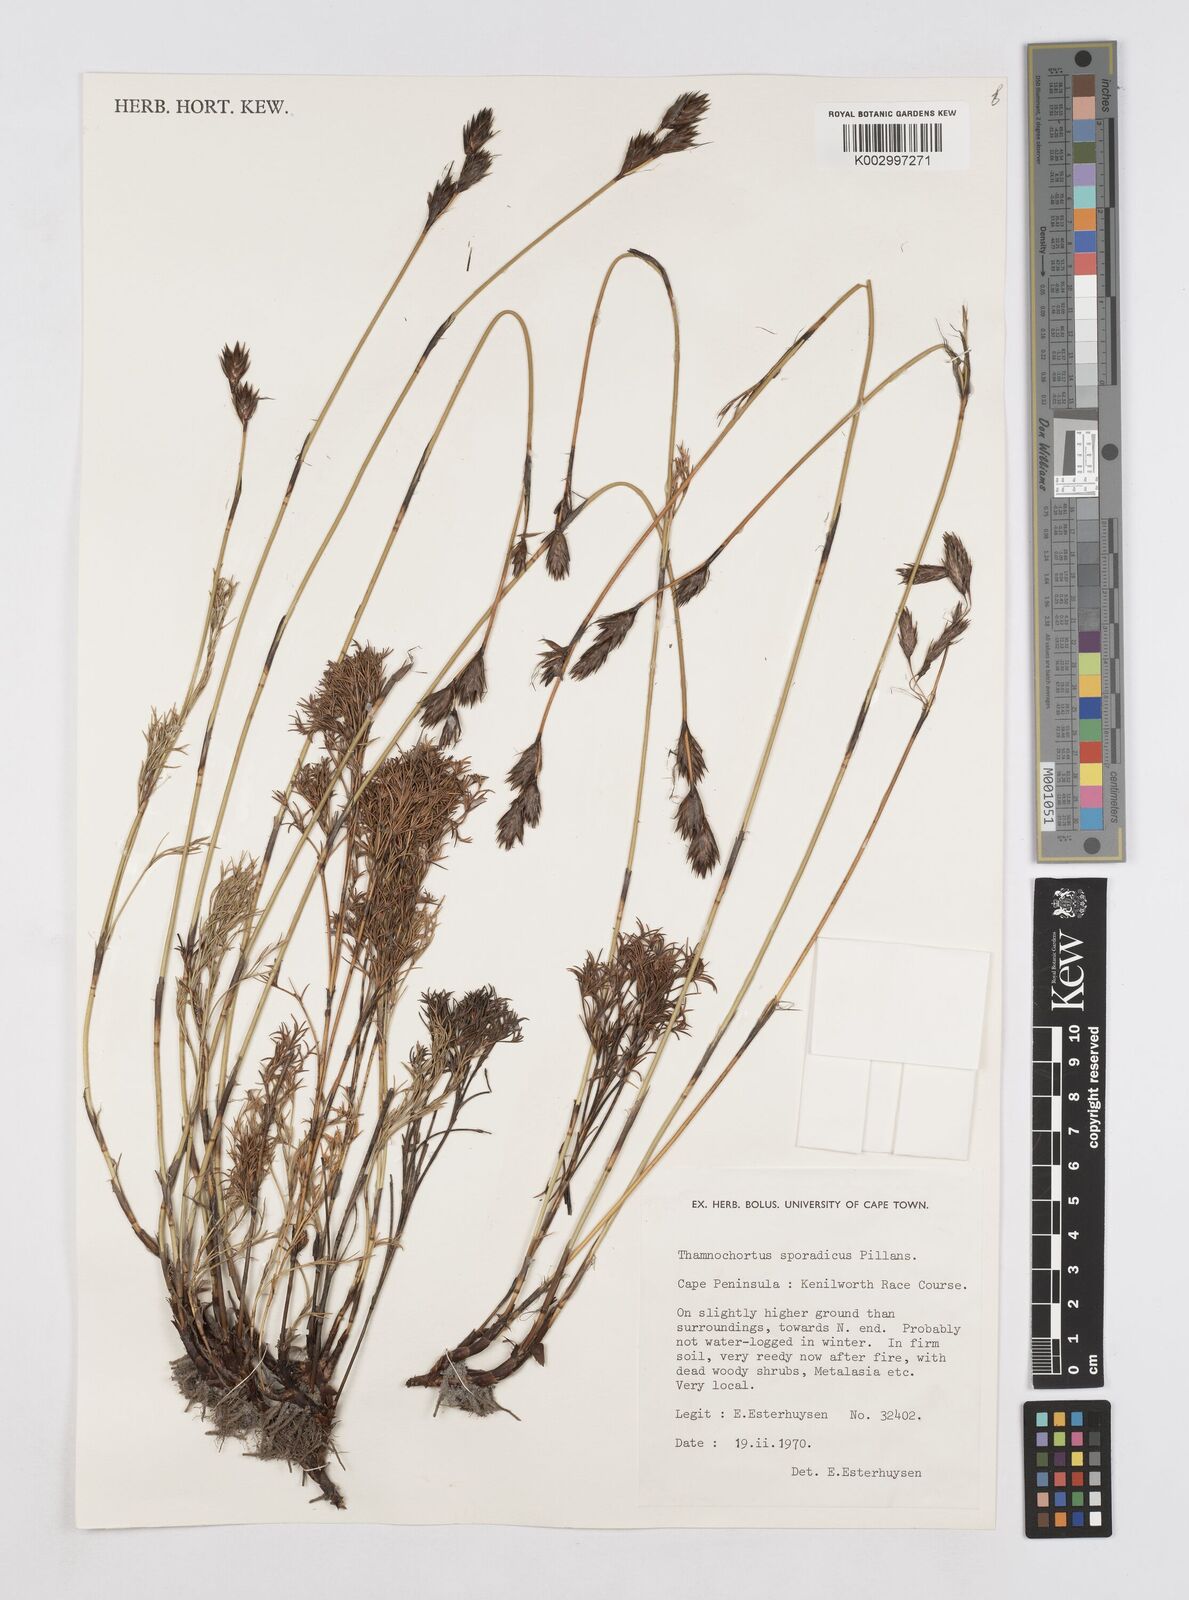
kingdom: Plantae
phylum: Tracheophyta
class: Liliopsida
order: Poales
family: Restionaceae
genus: Thamnochortus
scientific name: Thamnochortus sporadicus
